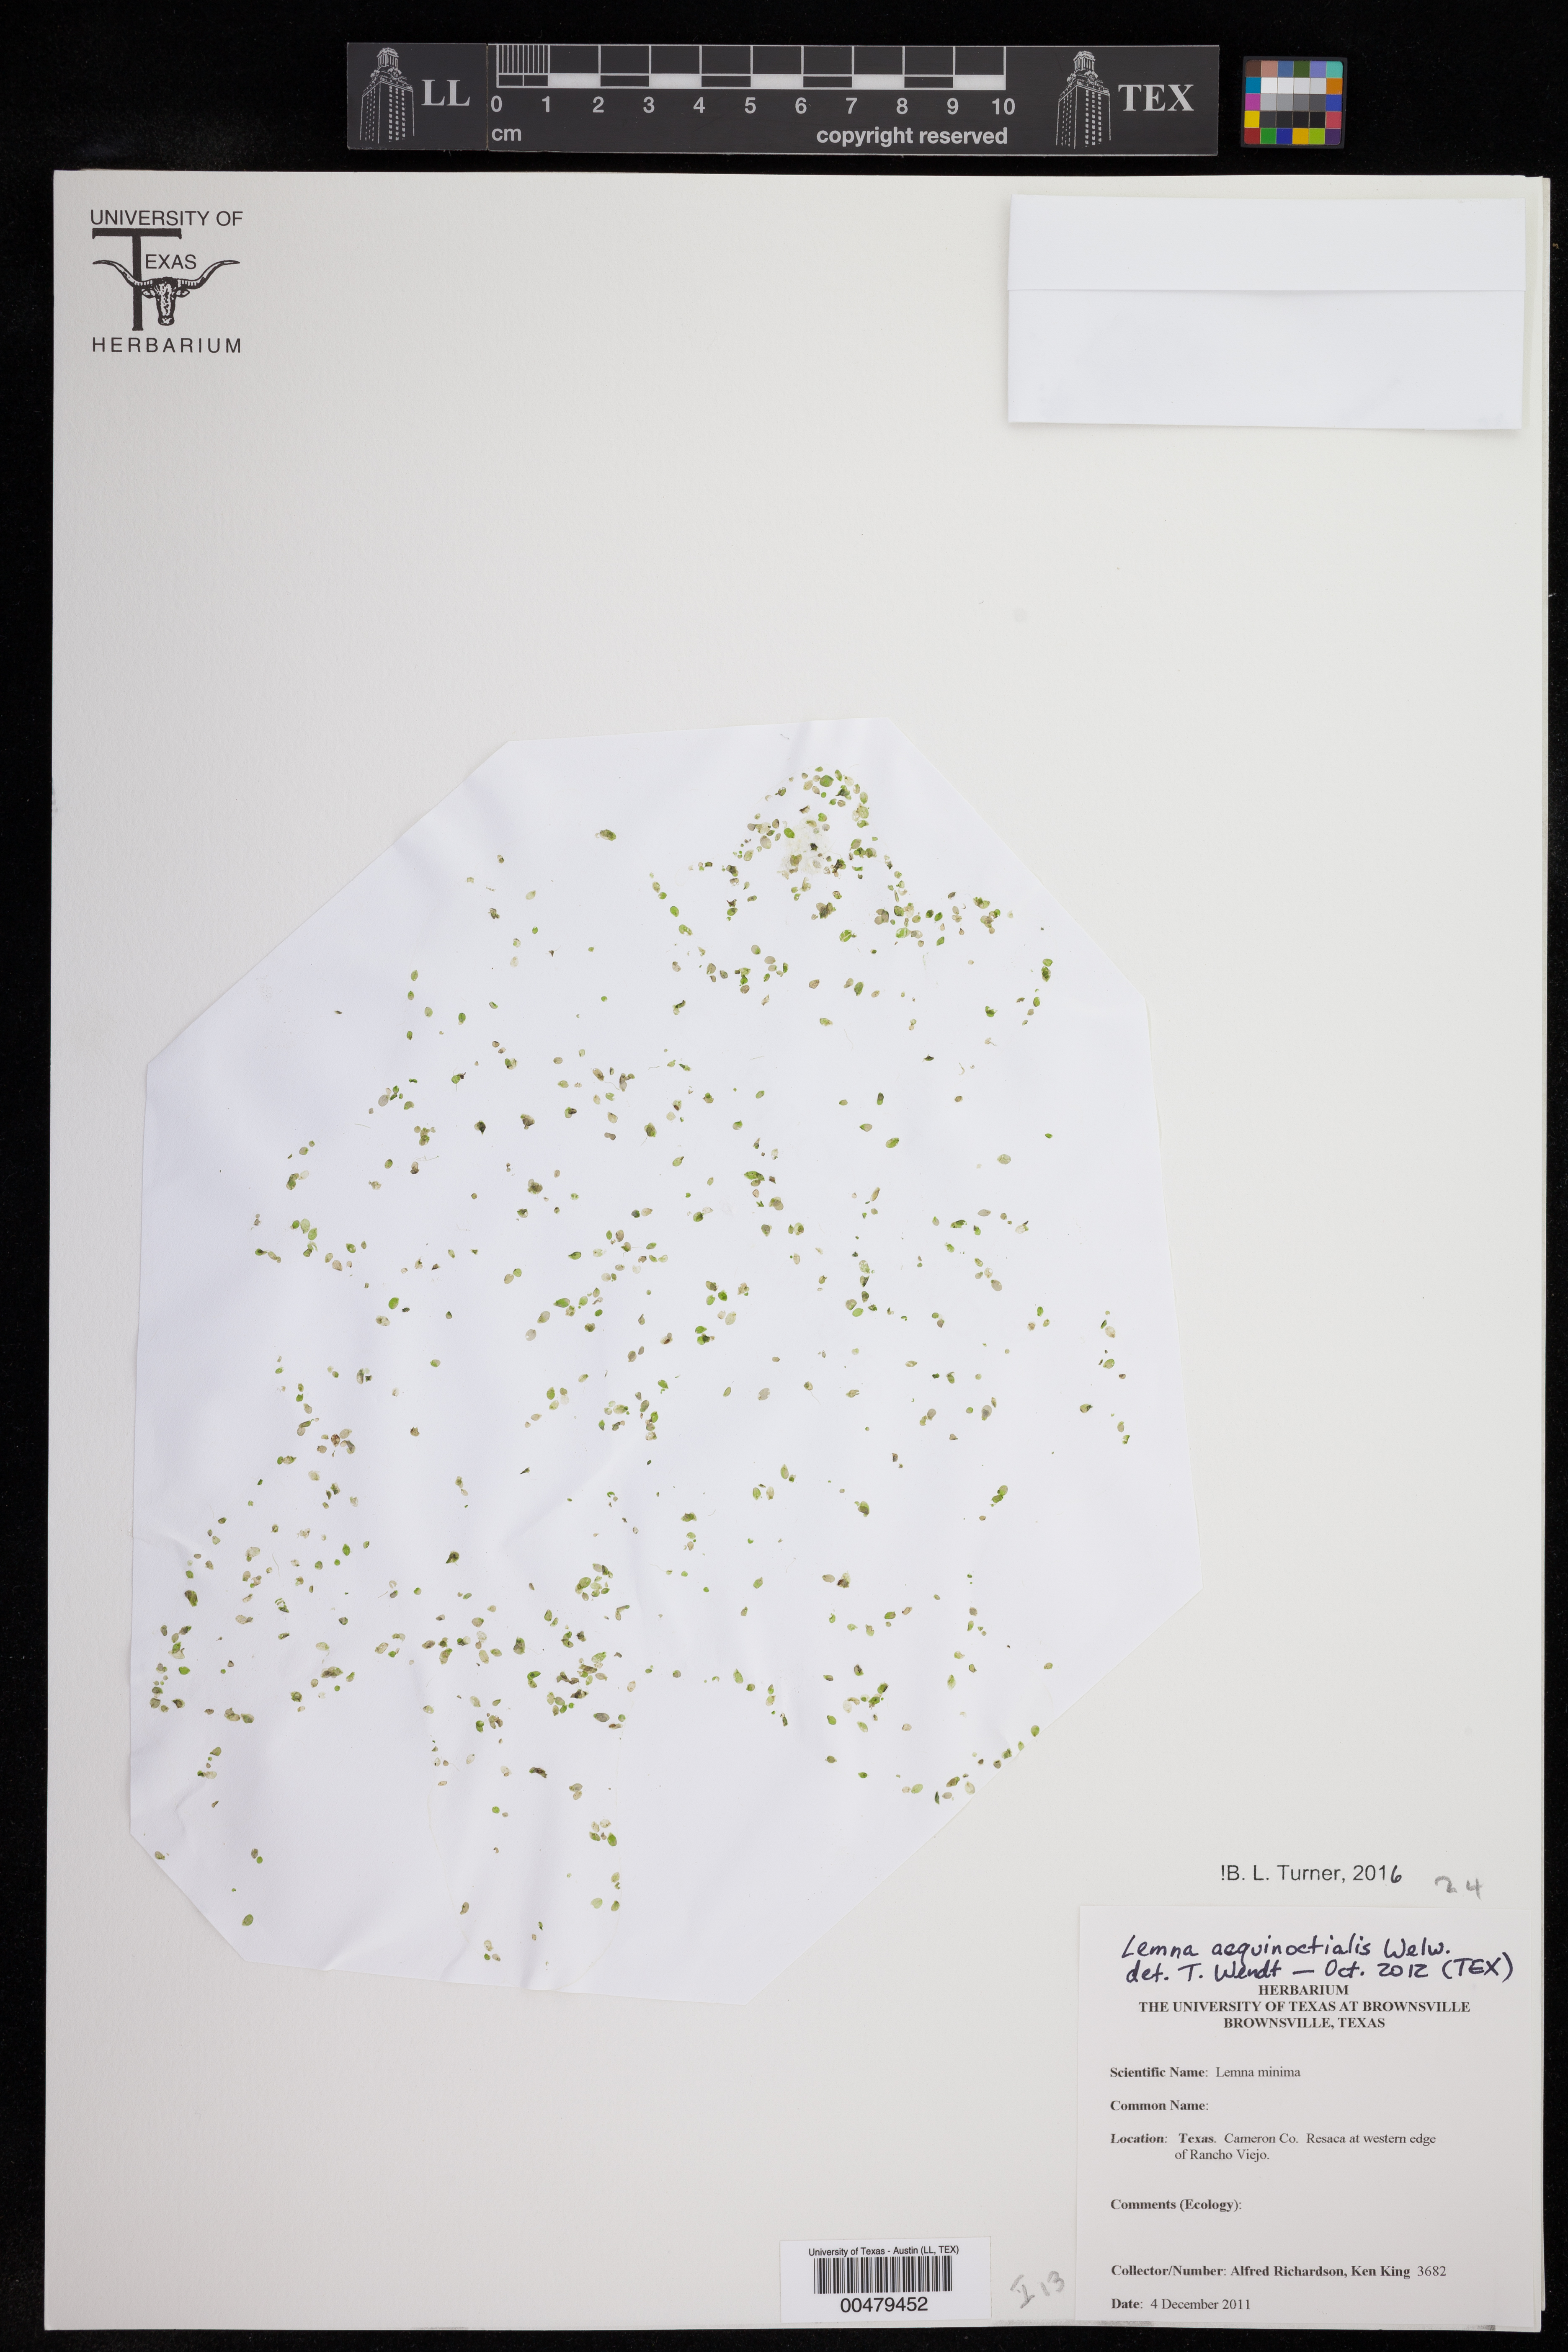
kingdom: Plantae
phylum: Tracheophyta
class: Liliopsida
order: Alismatales
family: Araceae
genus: Lemna
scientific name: Lemna aequinoctialis
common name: Duckweed
